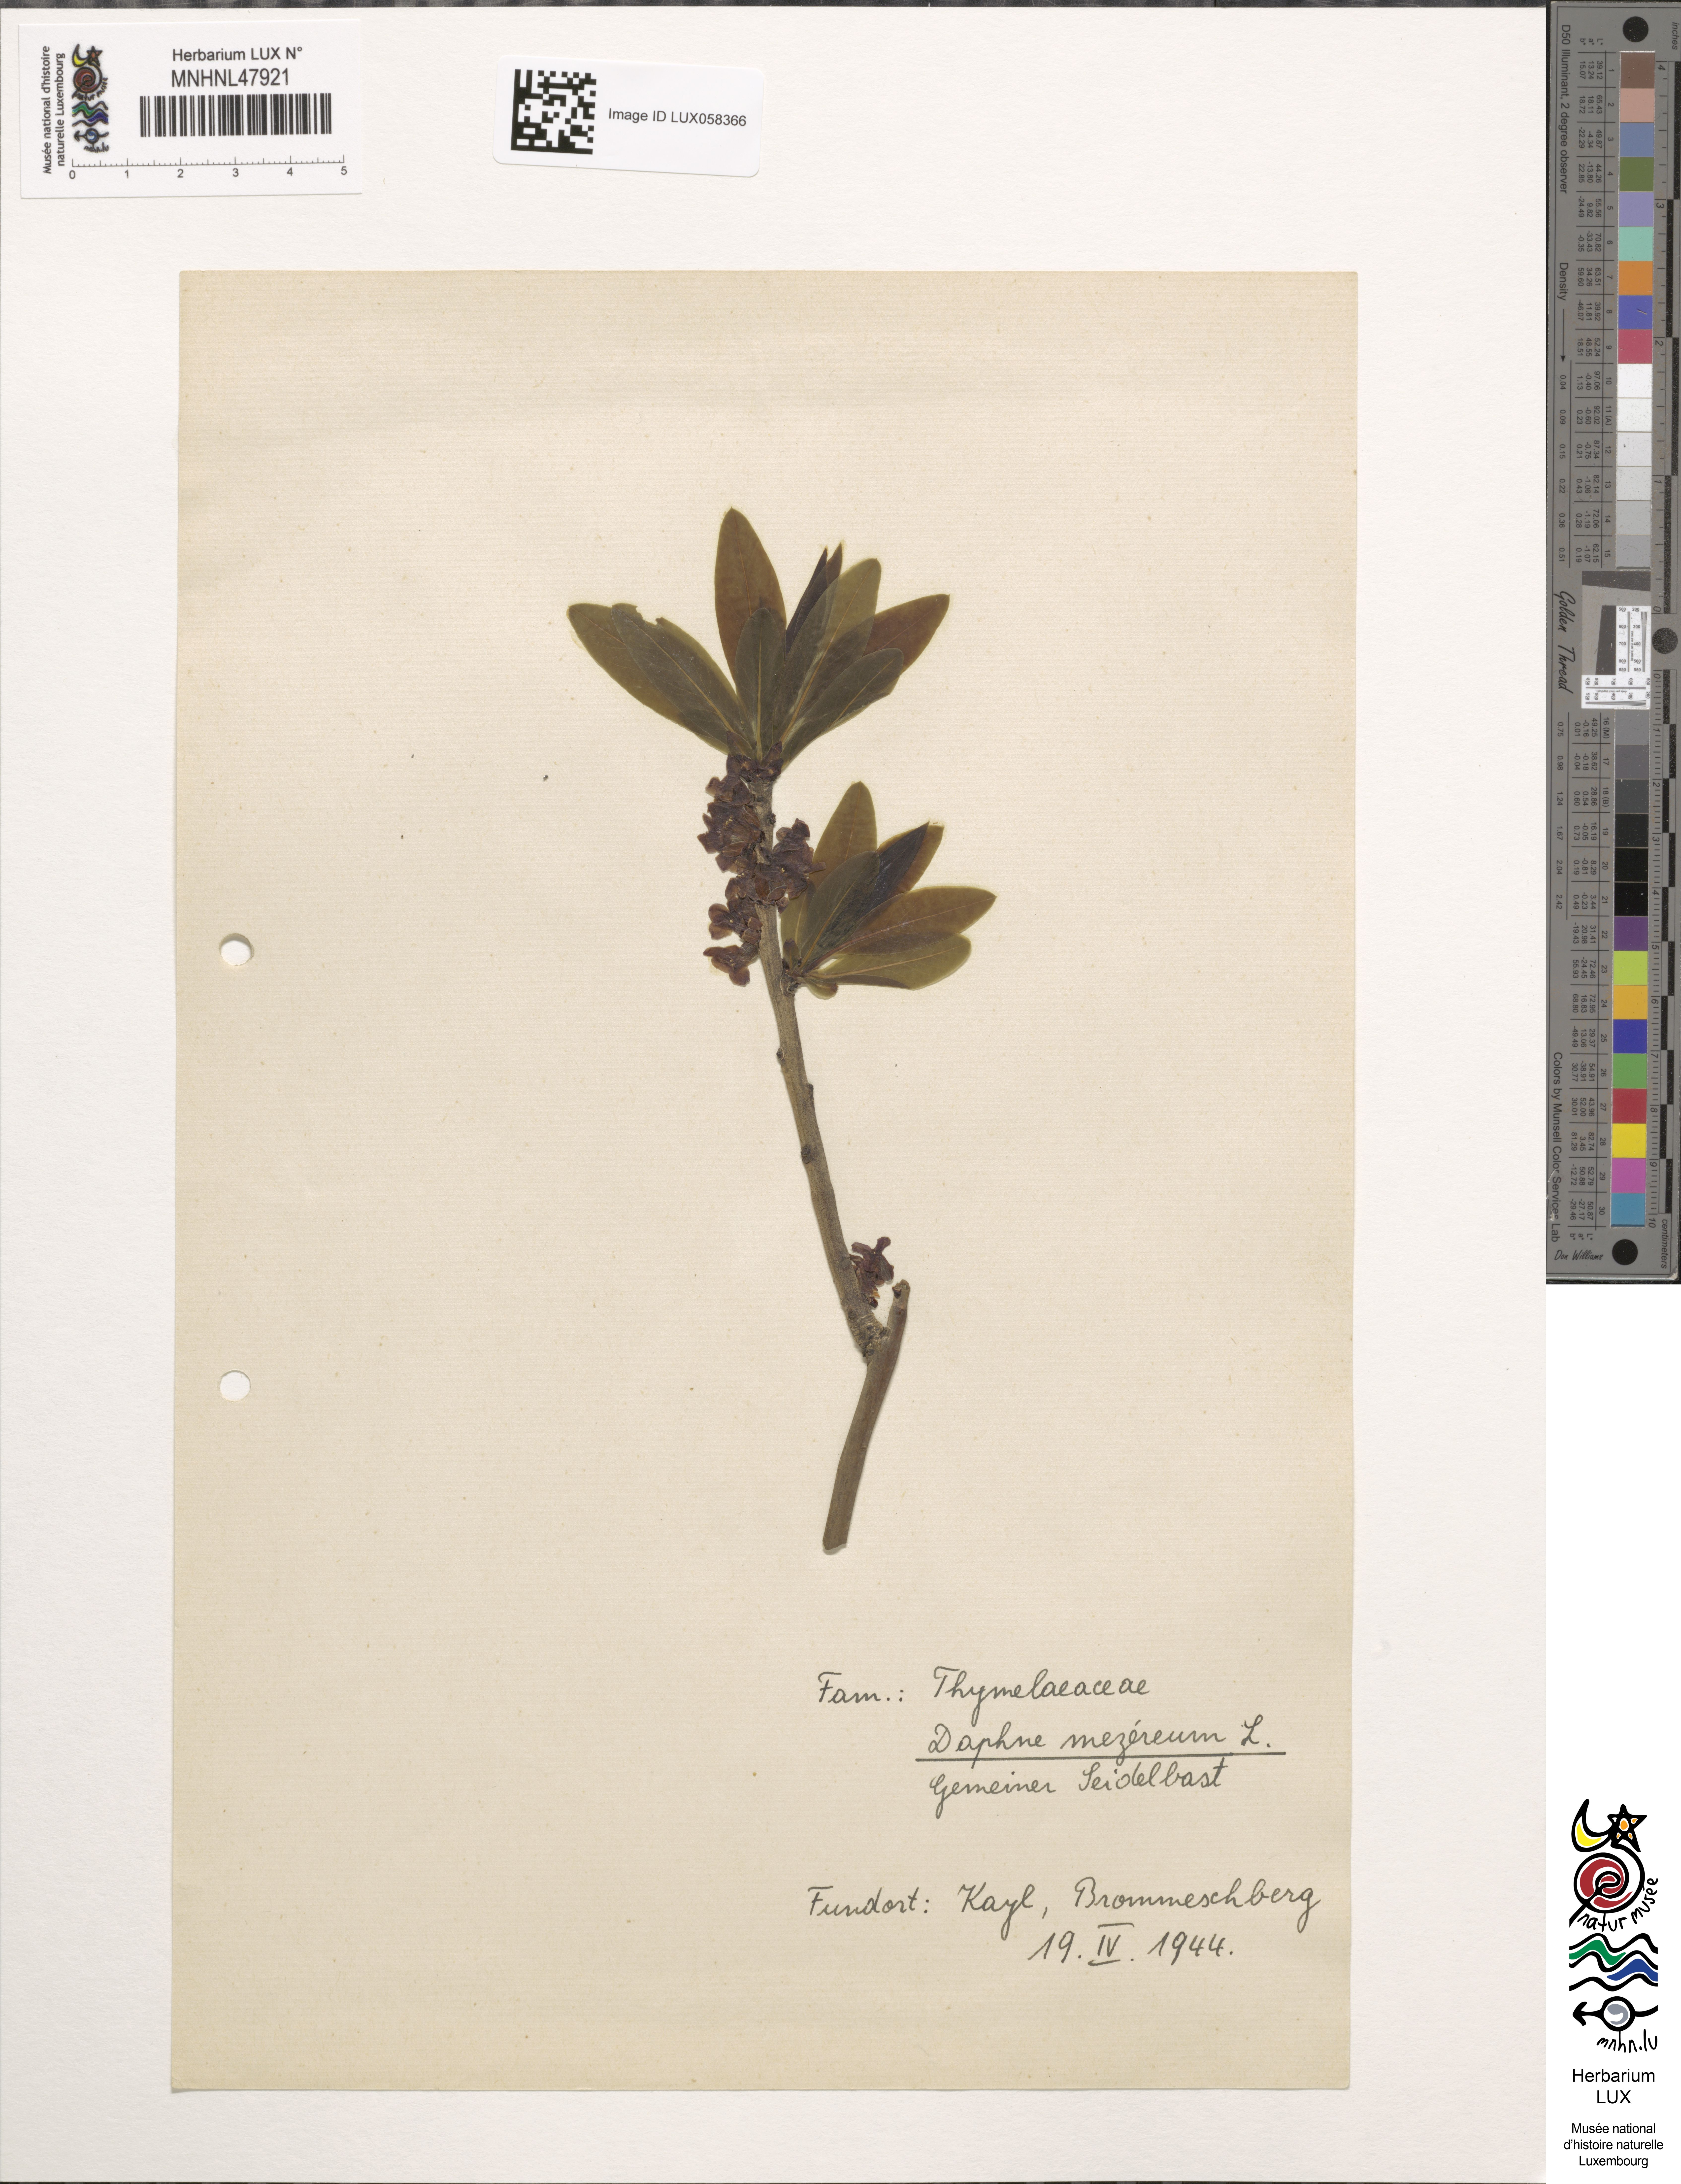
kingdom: Plantae
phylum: Tracheophyta
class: Magnoliopsida
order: Malvales
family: Thymelaeaceae
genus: Daphne
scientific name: Daphne mezereum
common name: Mezereon
